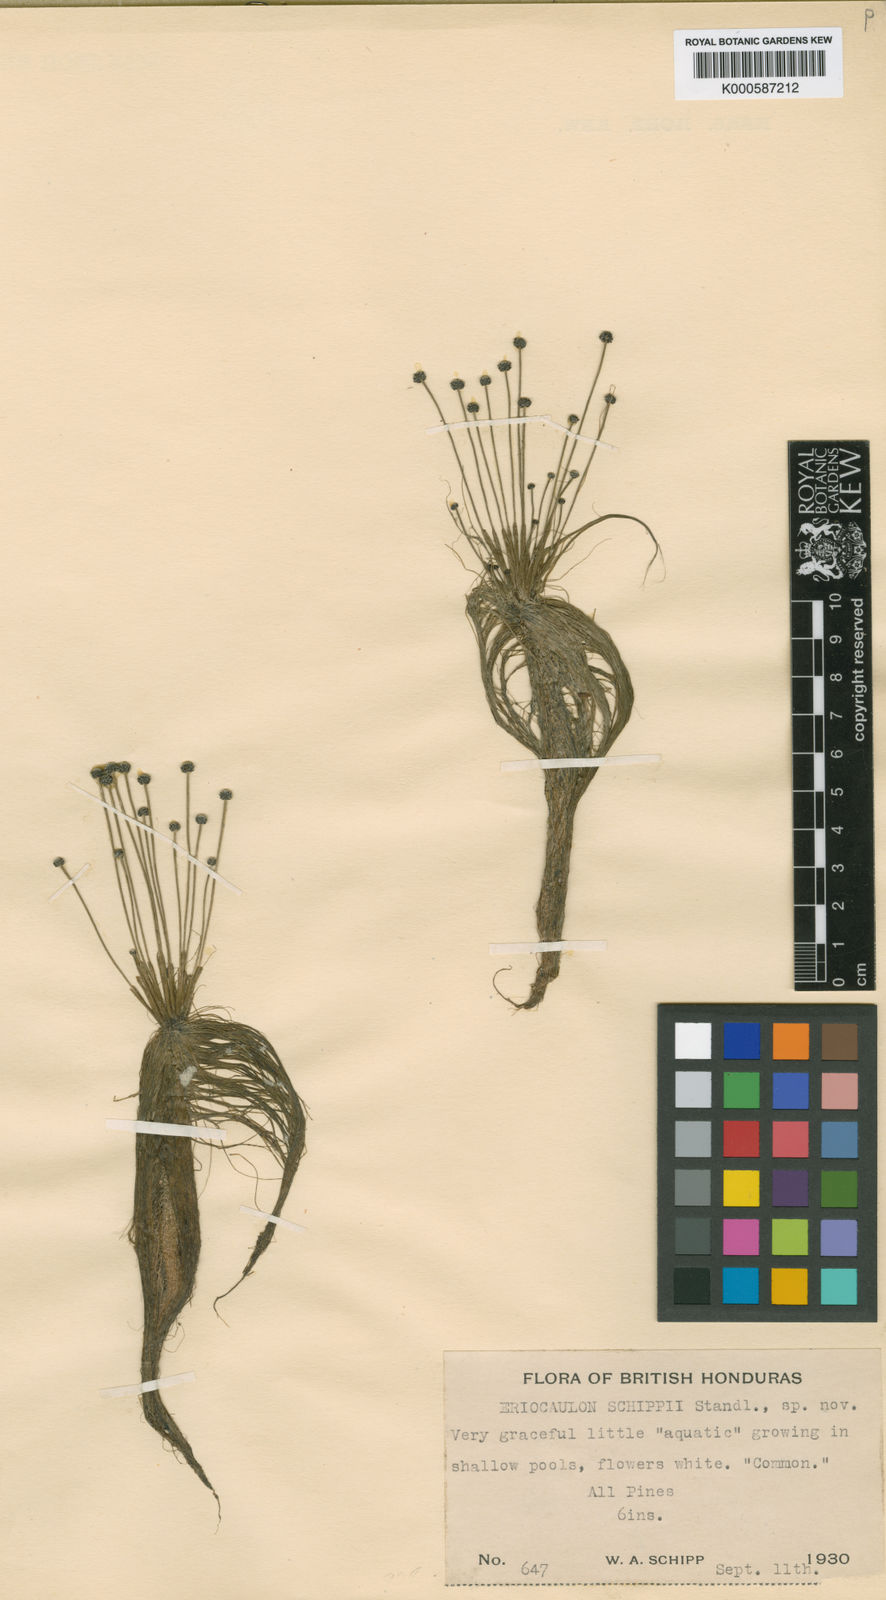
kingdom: Plantae
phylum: Tracheophyta
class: Liliopsida
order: Poales
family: Eriocaulaceae
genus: Eriocaulon
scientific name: Eriocaulon
